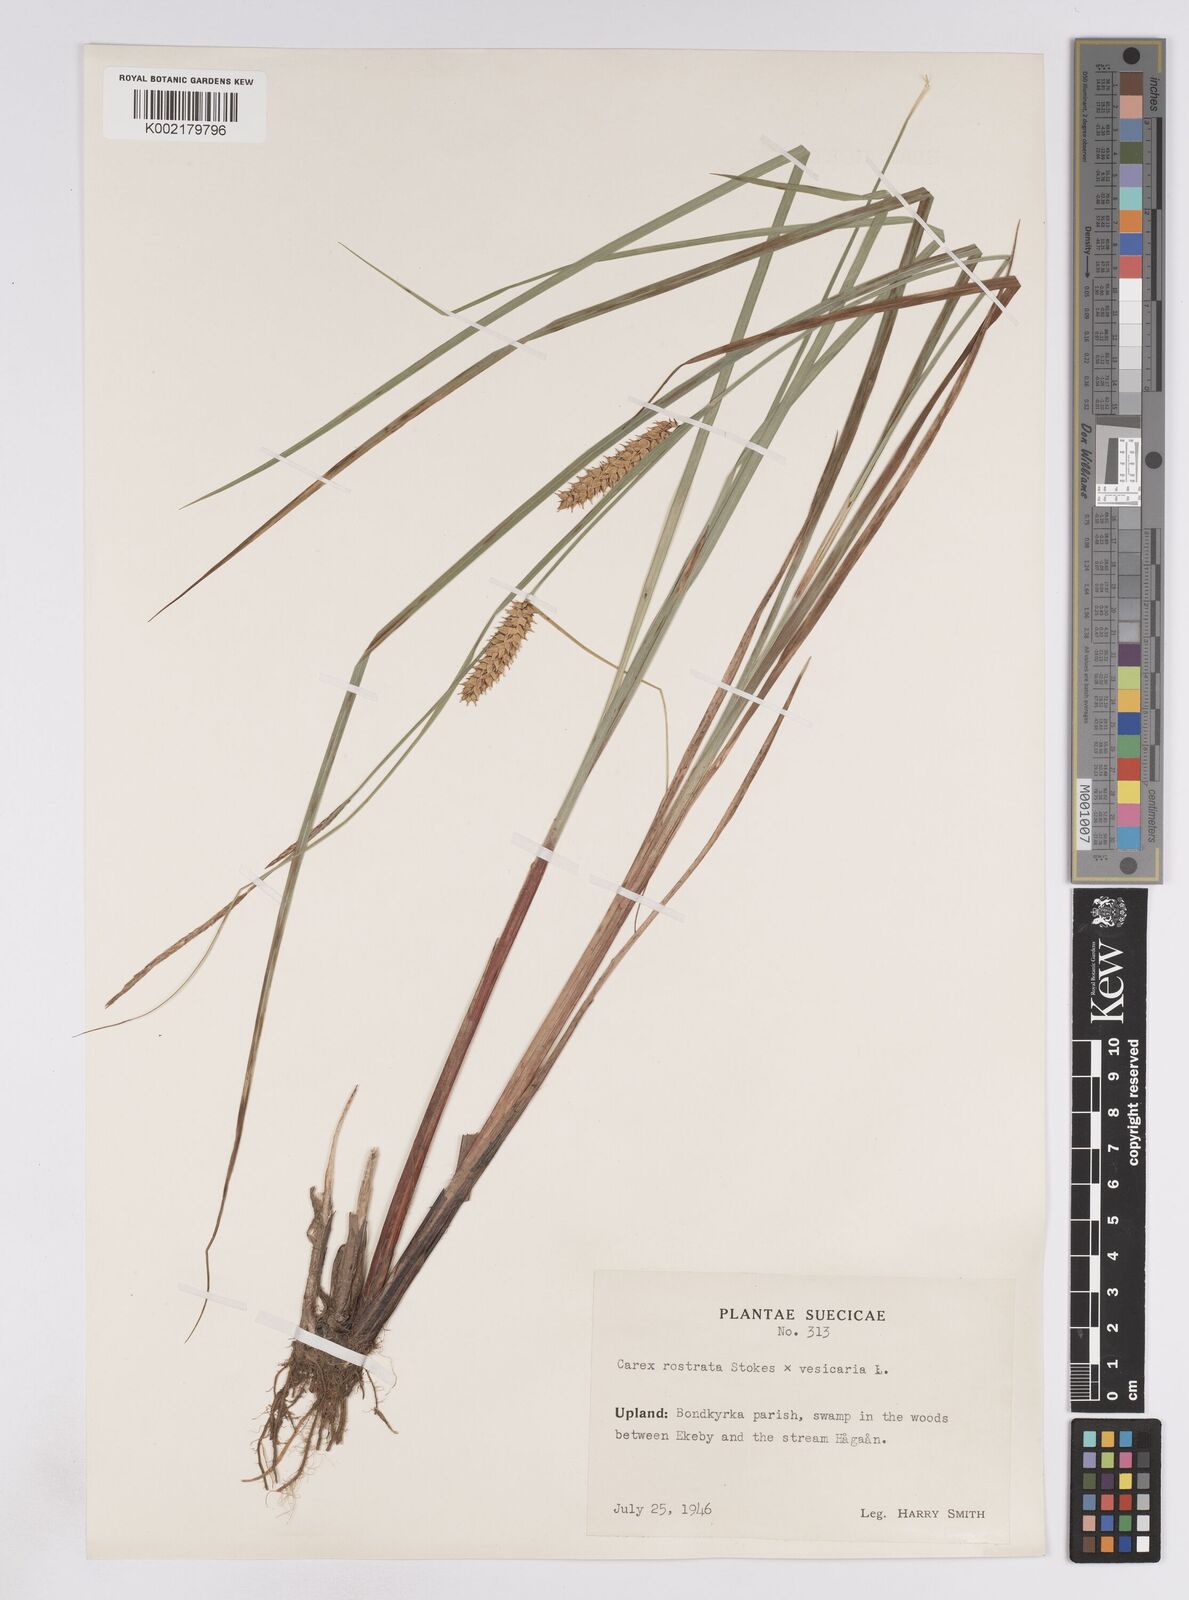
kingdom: Plantae
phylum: Tracheophyta
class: Liliopsida
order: Poales
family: Cyperaceae
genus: Carex
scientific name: Carex rostrata
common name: Bottle sedge
